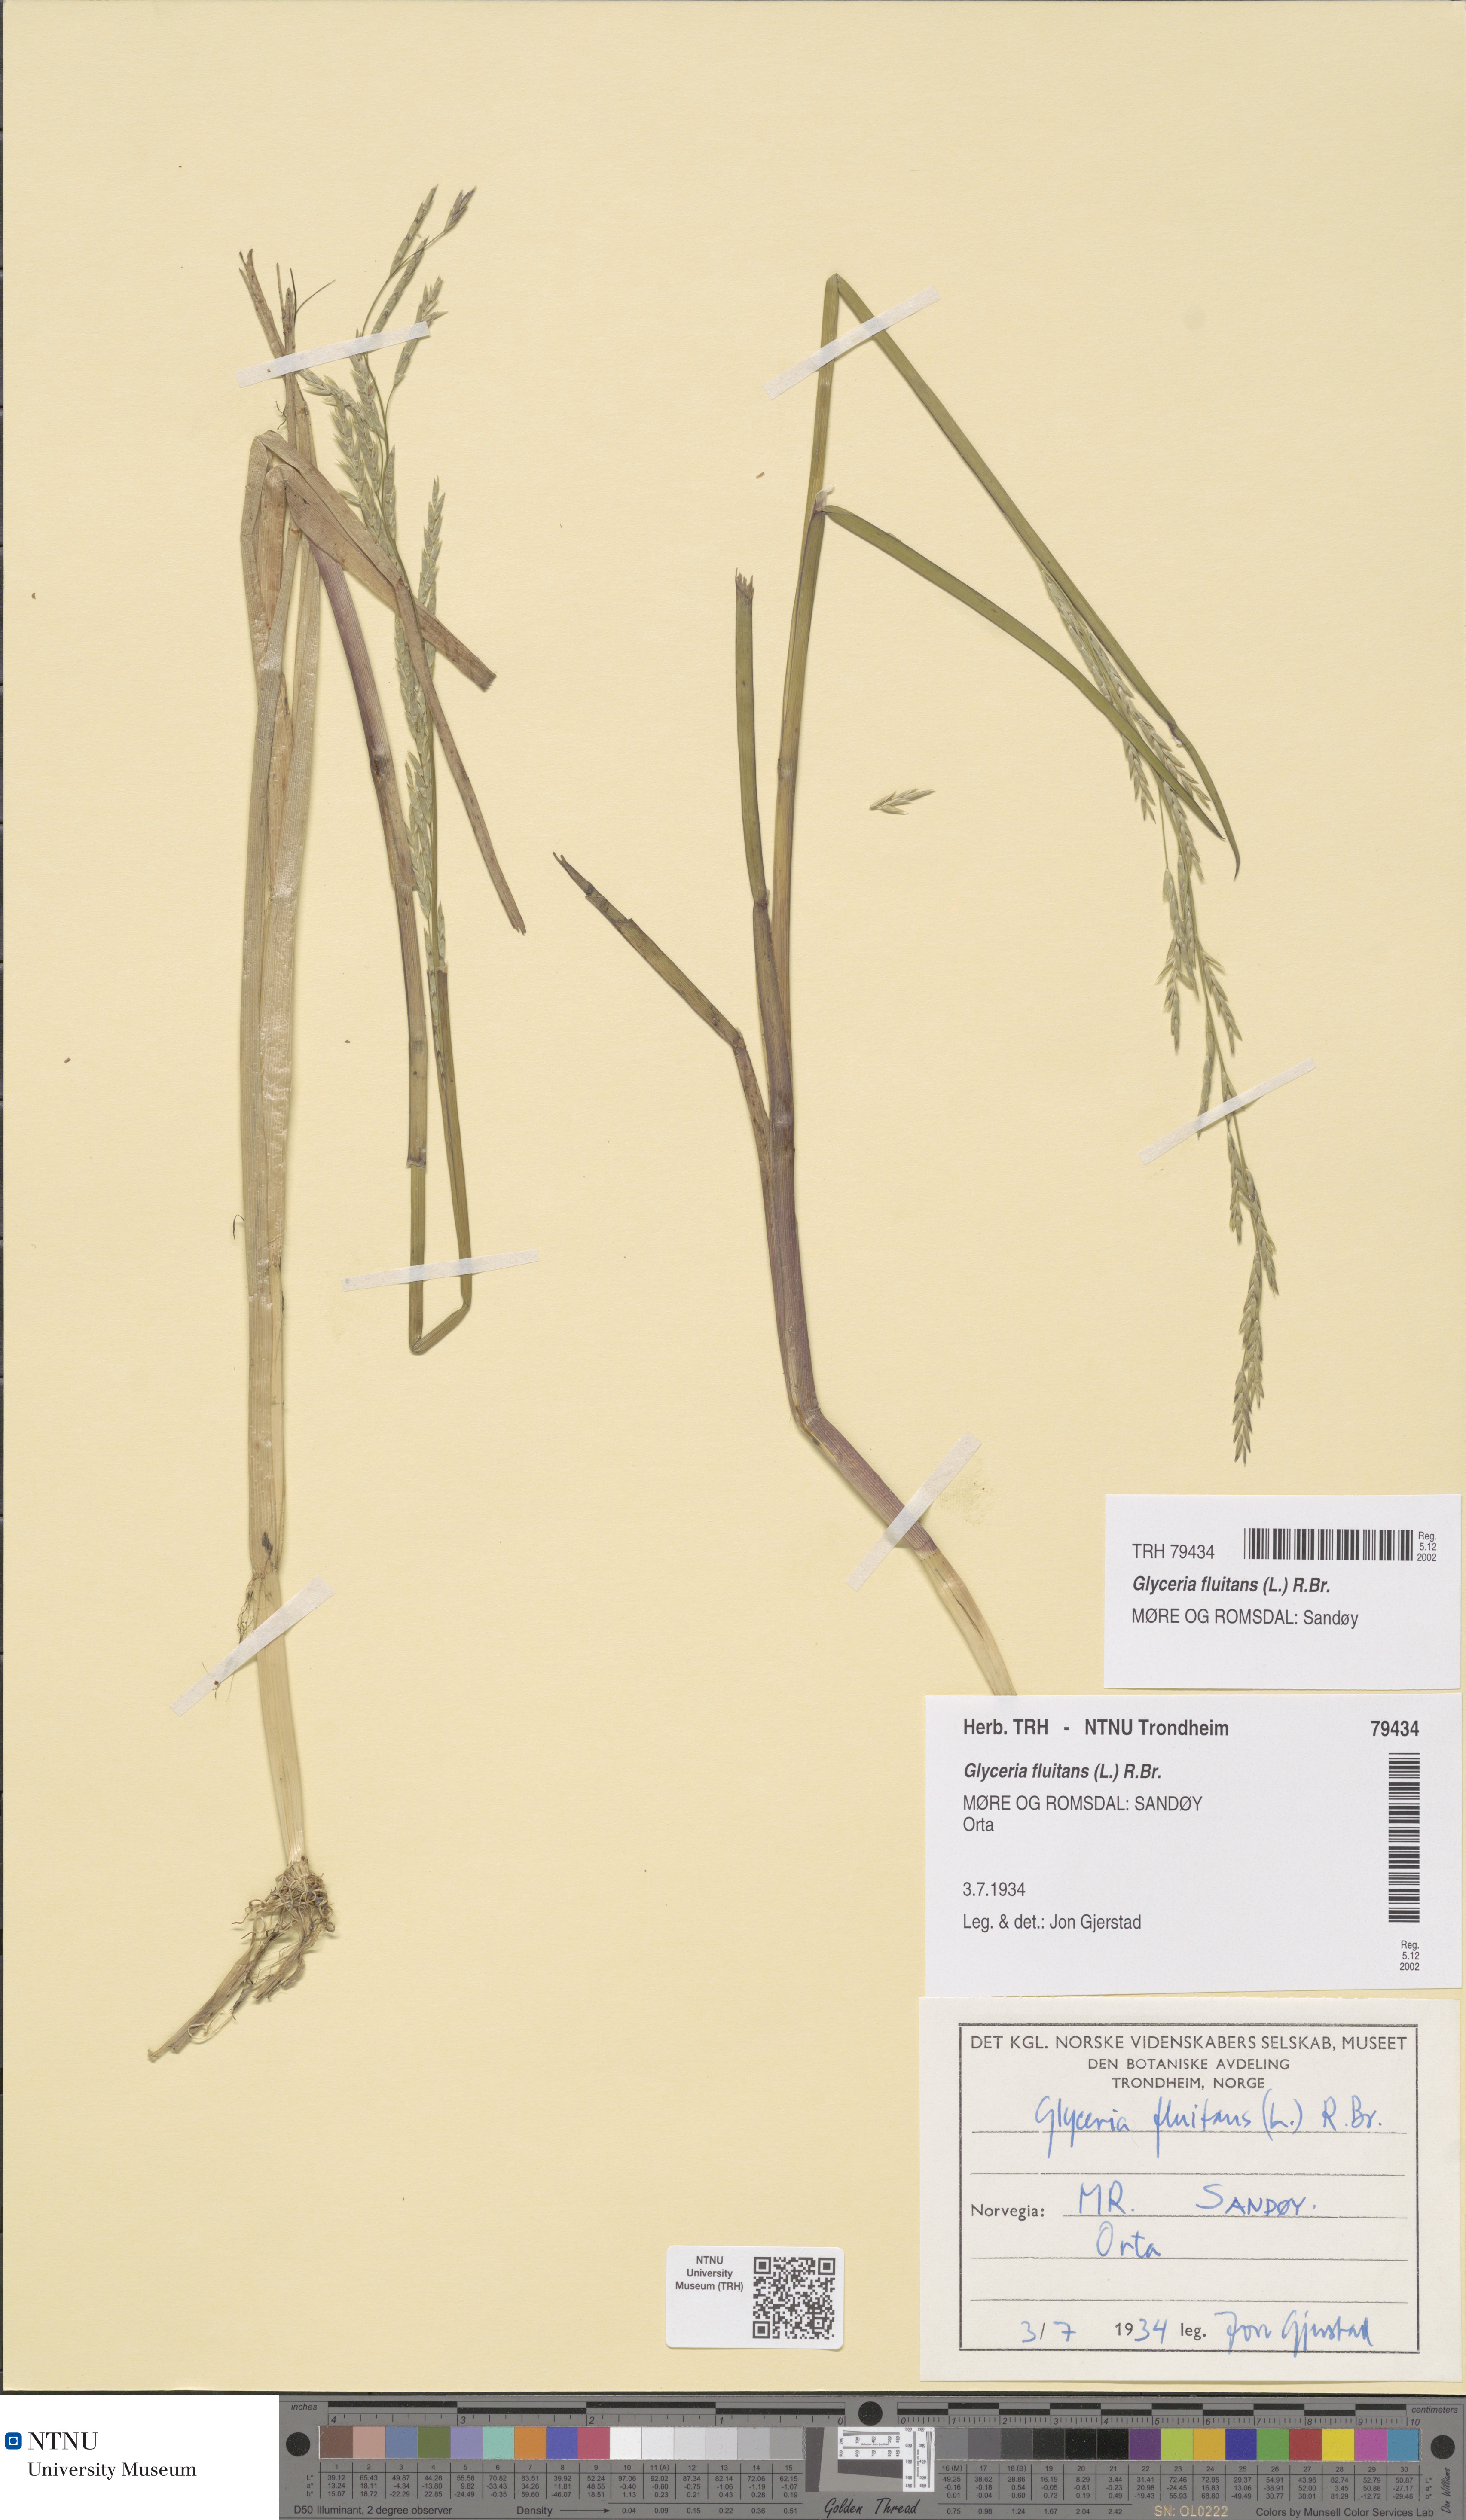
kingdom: Plantae
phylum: Tracheophyta
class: Liliopsida
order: Poales
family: Poaceae
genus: Glyceria
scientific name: Glyceria fluitans
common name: Floating sweet-grass
